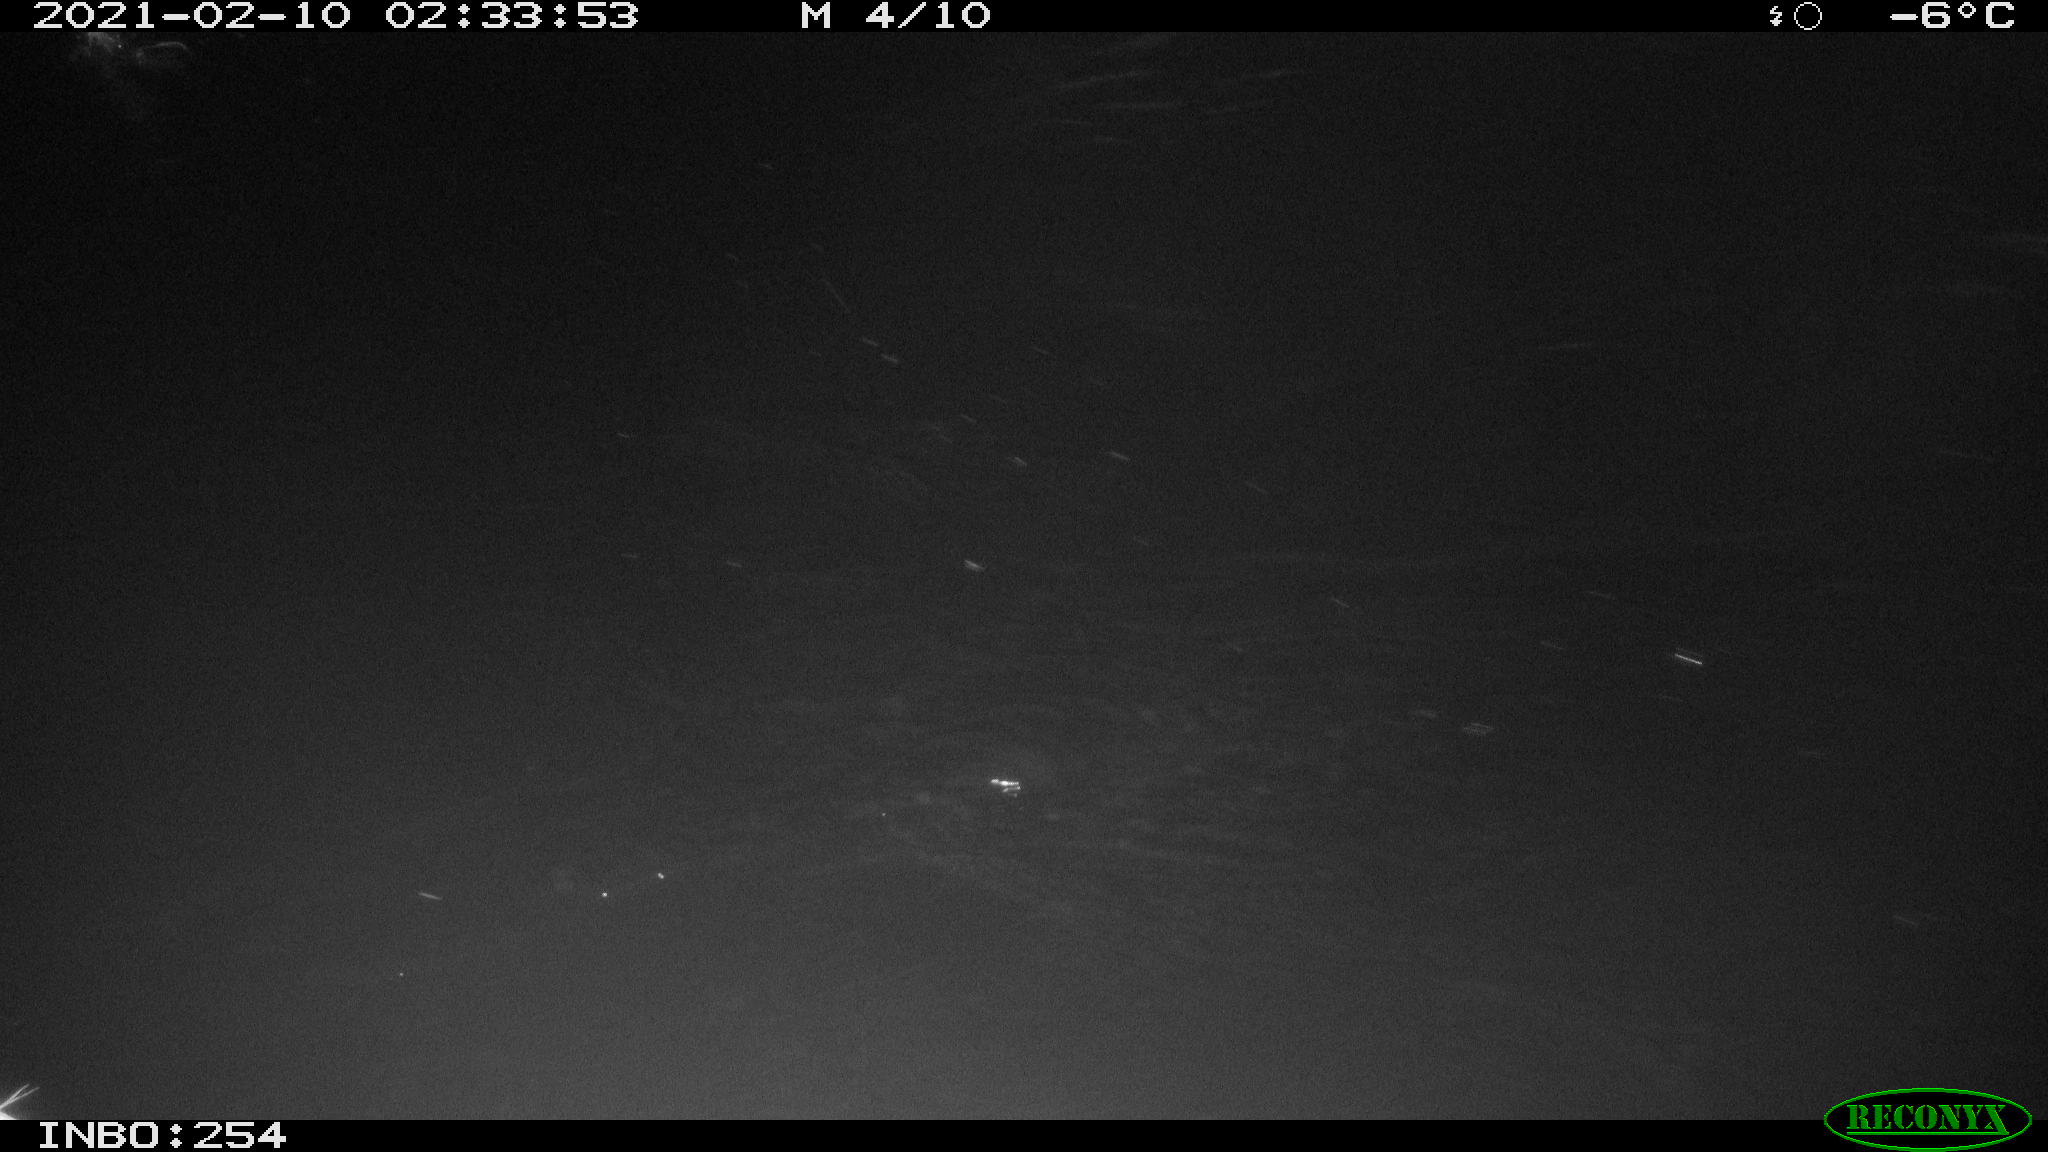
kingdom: Animalia
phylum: Chordata
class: Aves
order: Anseriformes
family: Anatidae
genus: Anas
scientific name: Anas platyrhynchos
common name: Mallard
